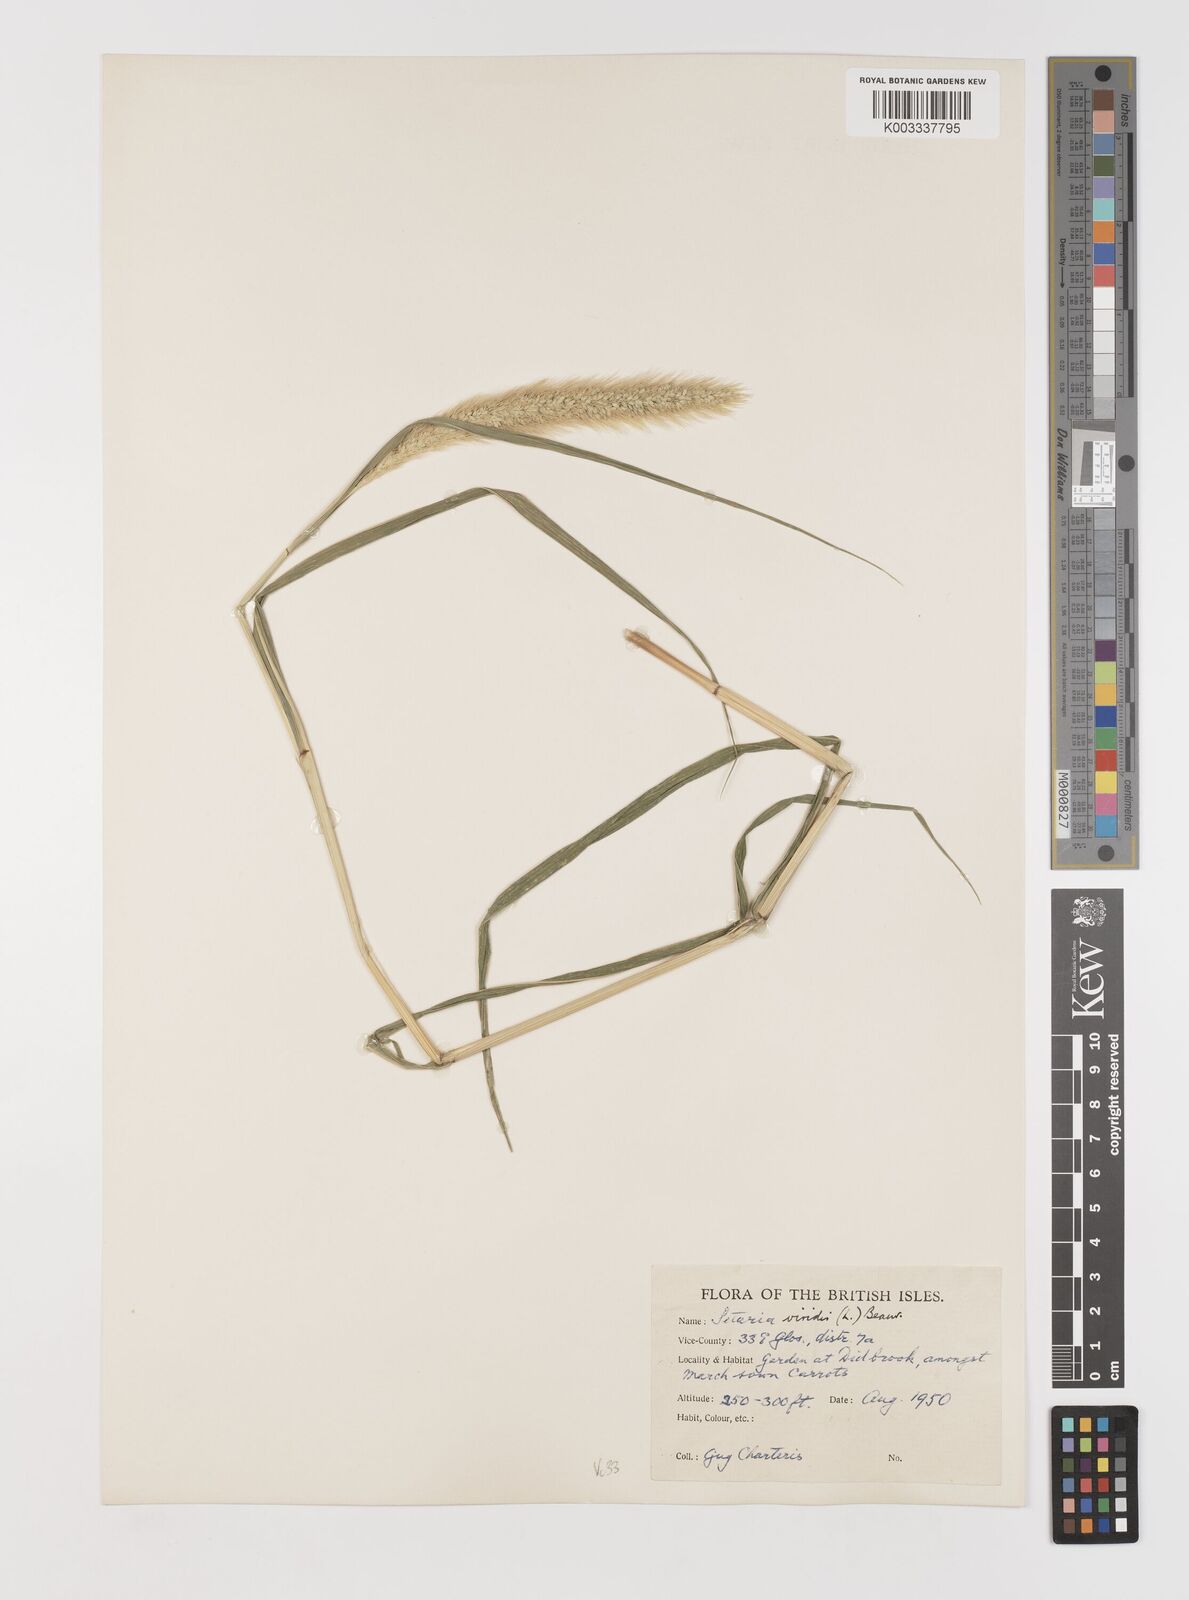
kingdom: Plantae
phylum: Tracheophyta
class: Liliopsida
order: Poales
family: Poaceae
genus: Setaria
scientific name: Setaria viridis
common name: Green bristlegrass
